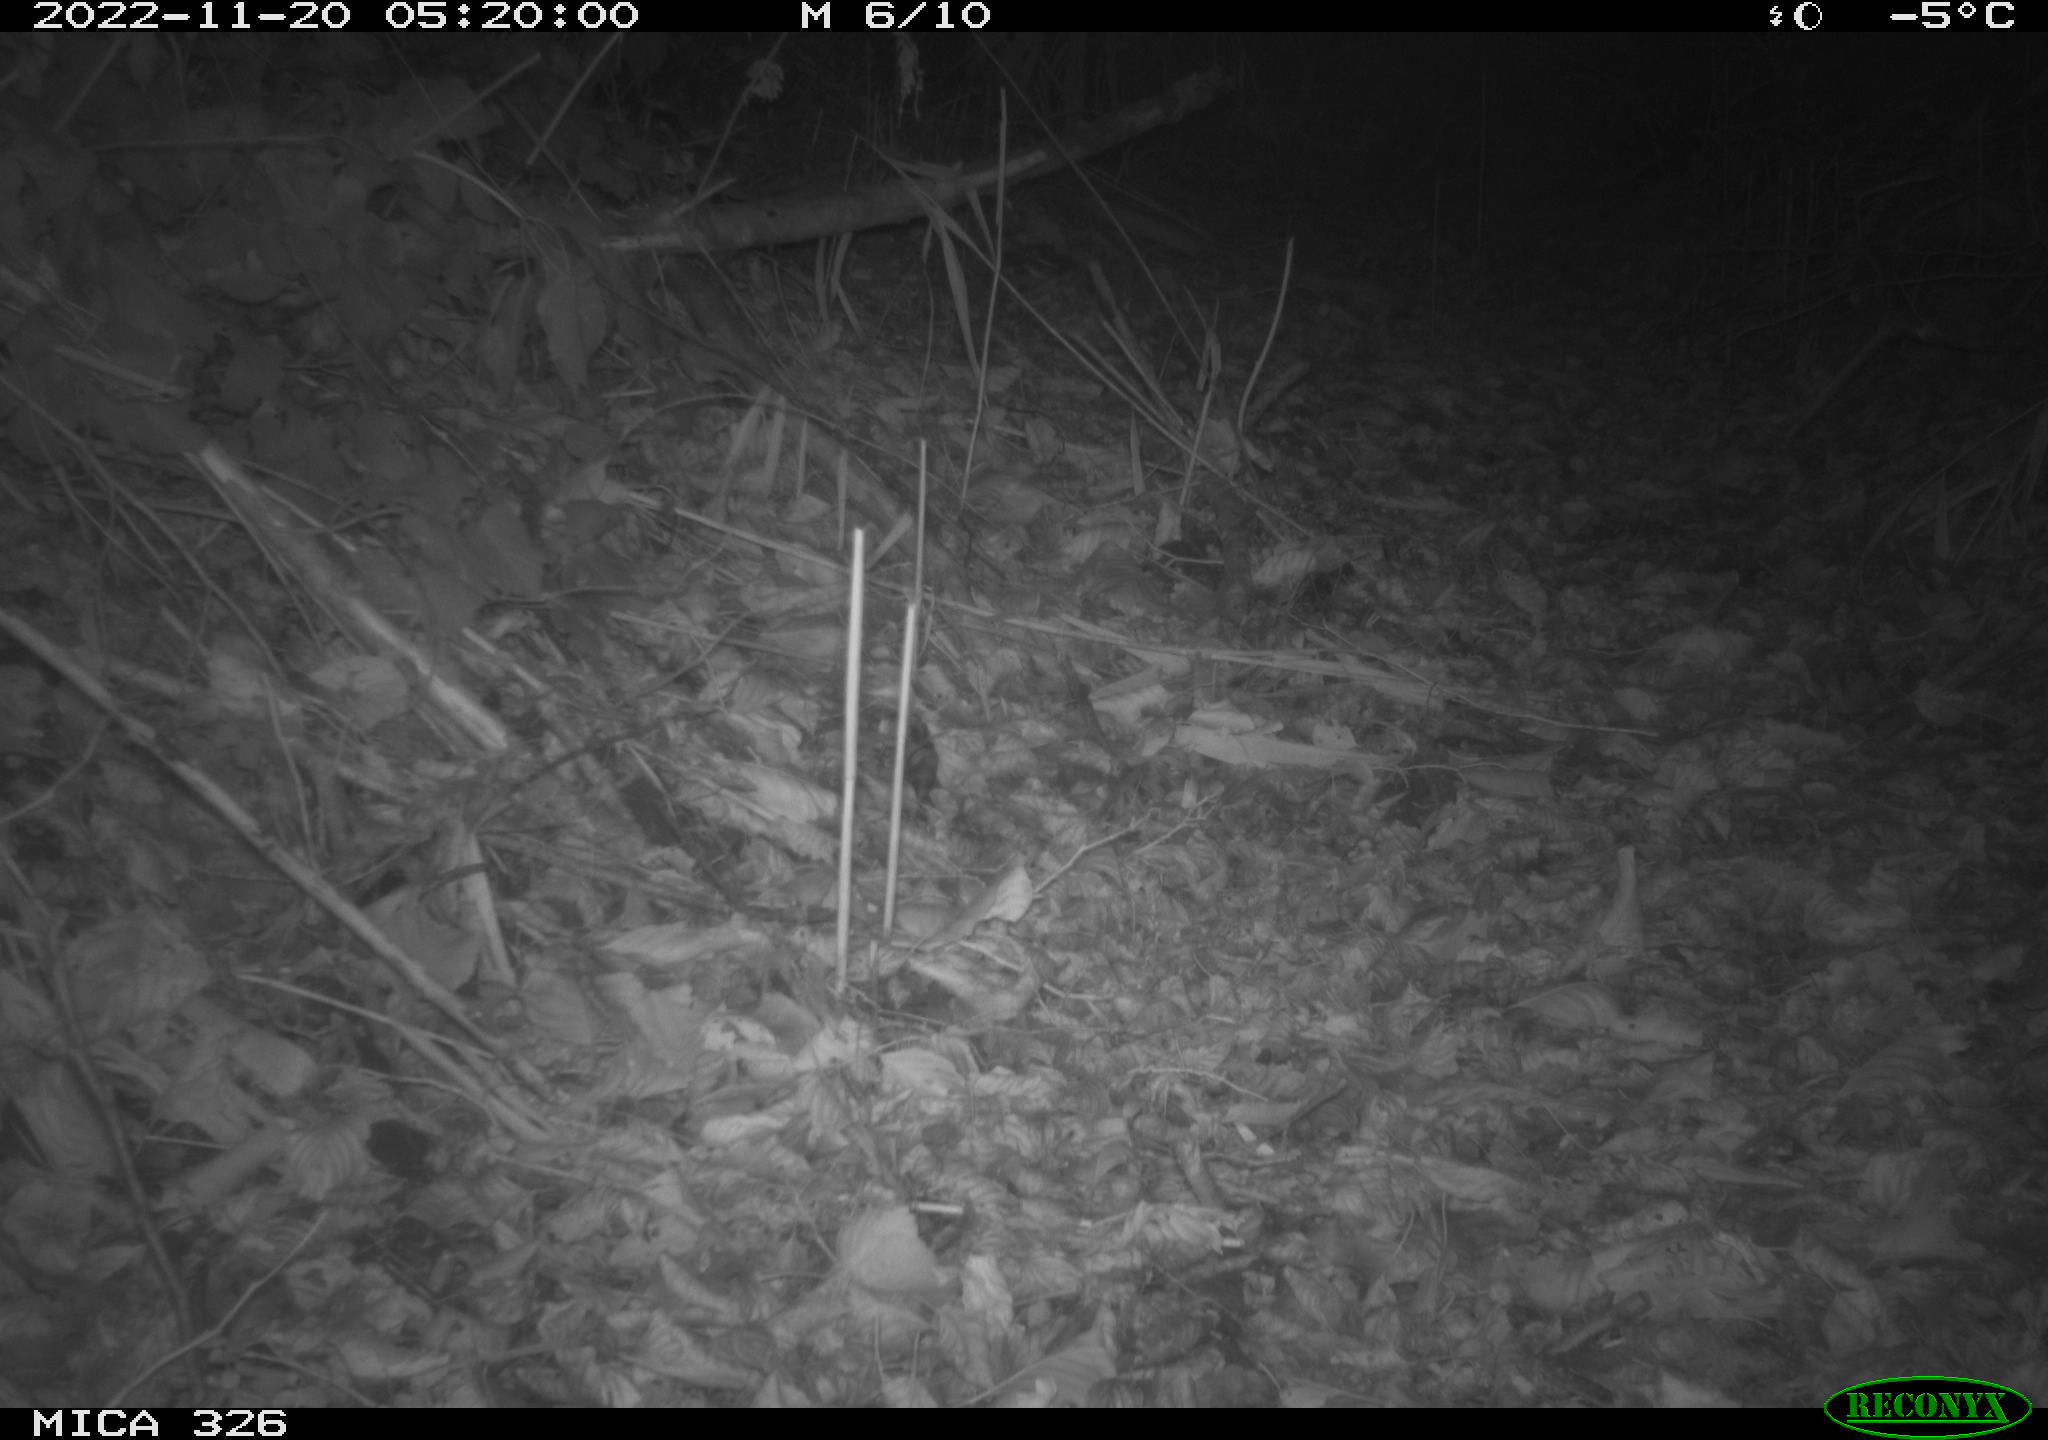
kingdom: Animalia
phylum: Chordata
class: Mammalia
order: Rodentia
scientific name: Rodentia
